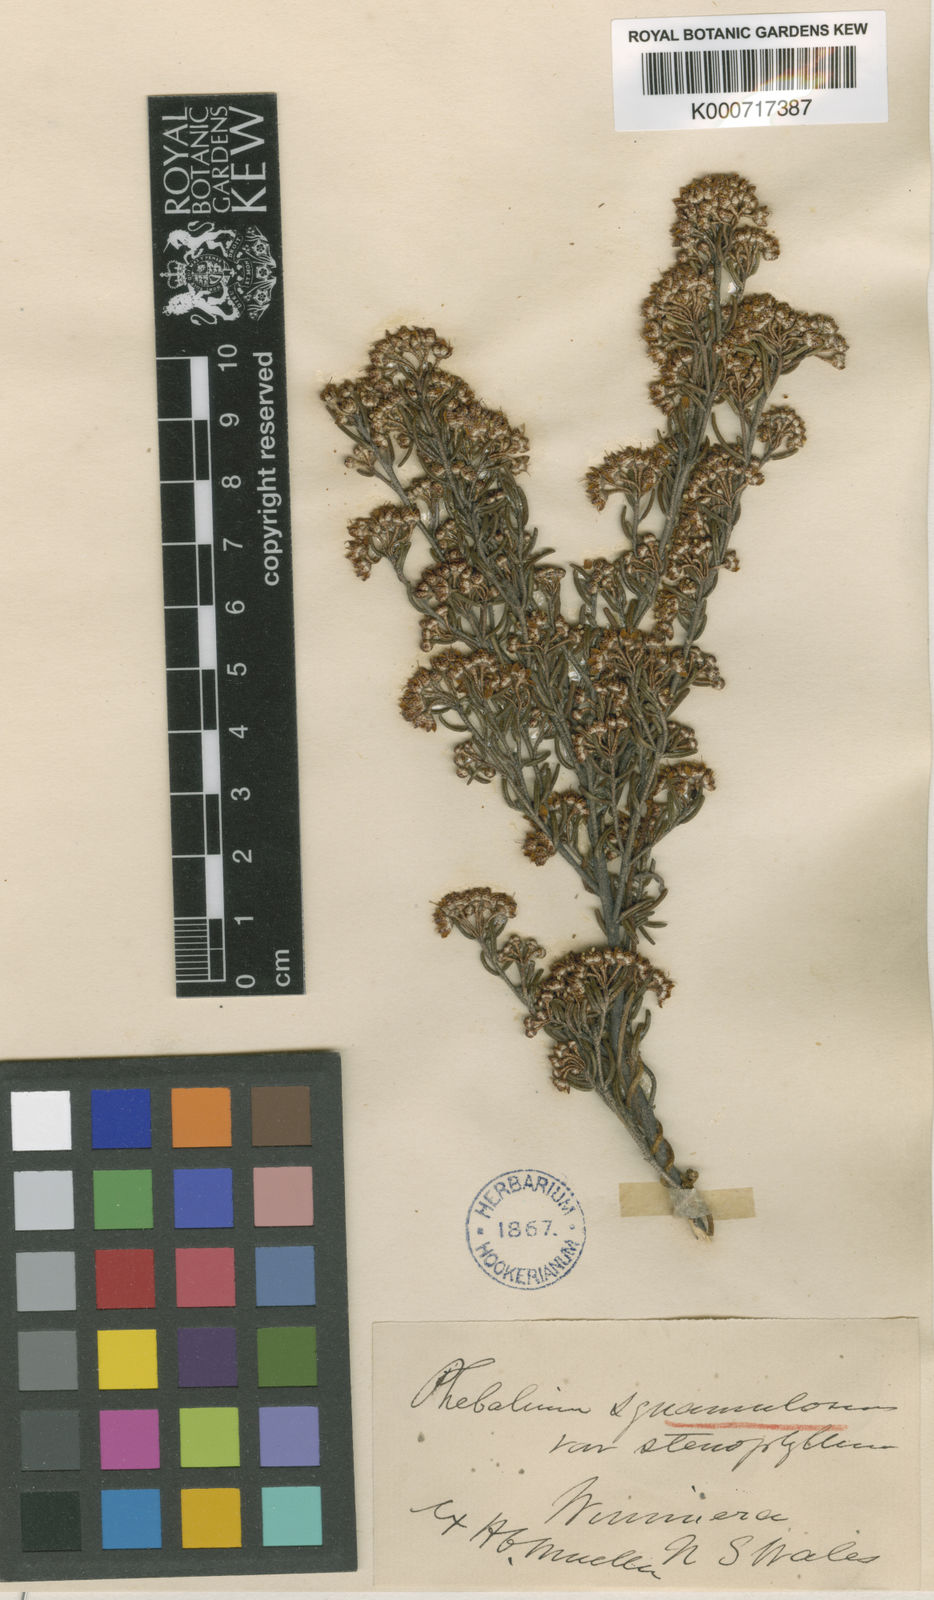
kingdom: Plantae
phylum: Tracheophyta
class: Magnoliopsida
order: Sapindales
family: Rutaceae
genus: Phebalium
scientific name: Phebalium stenophyllum
